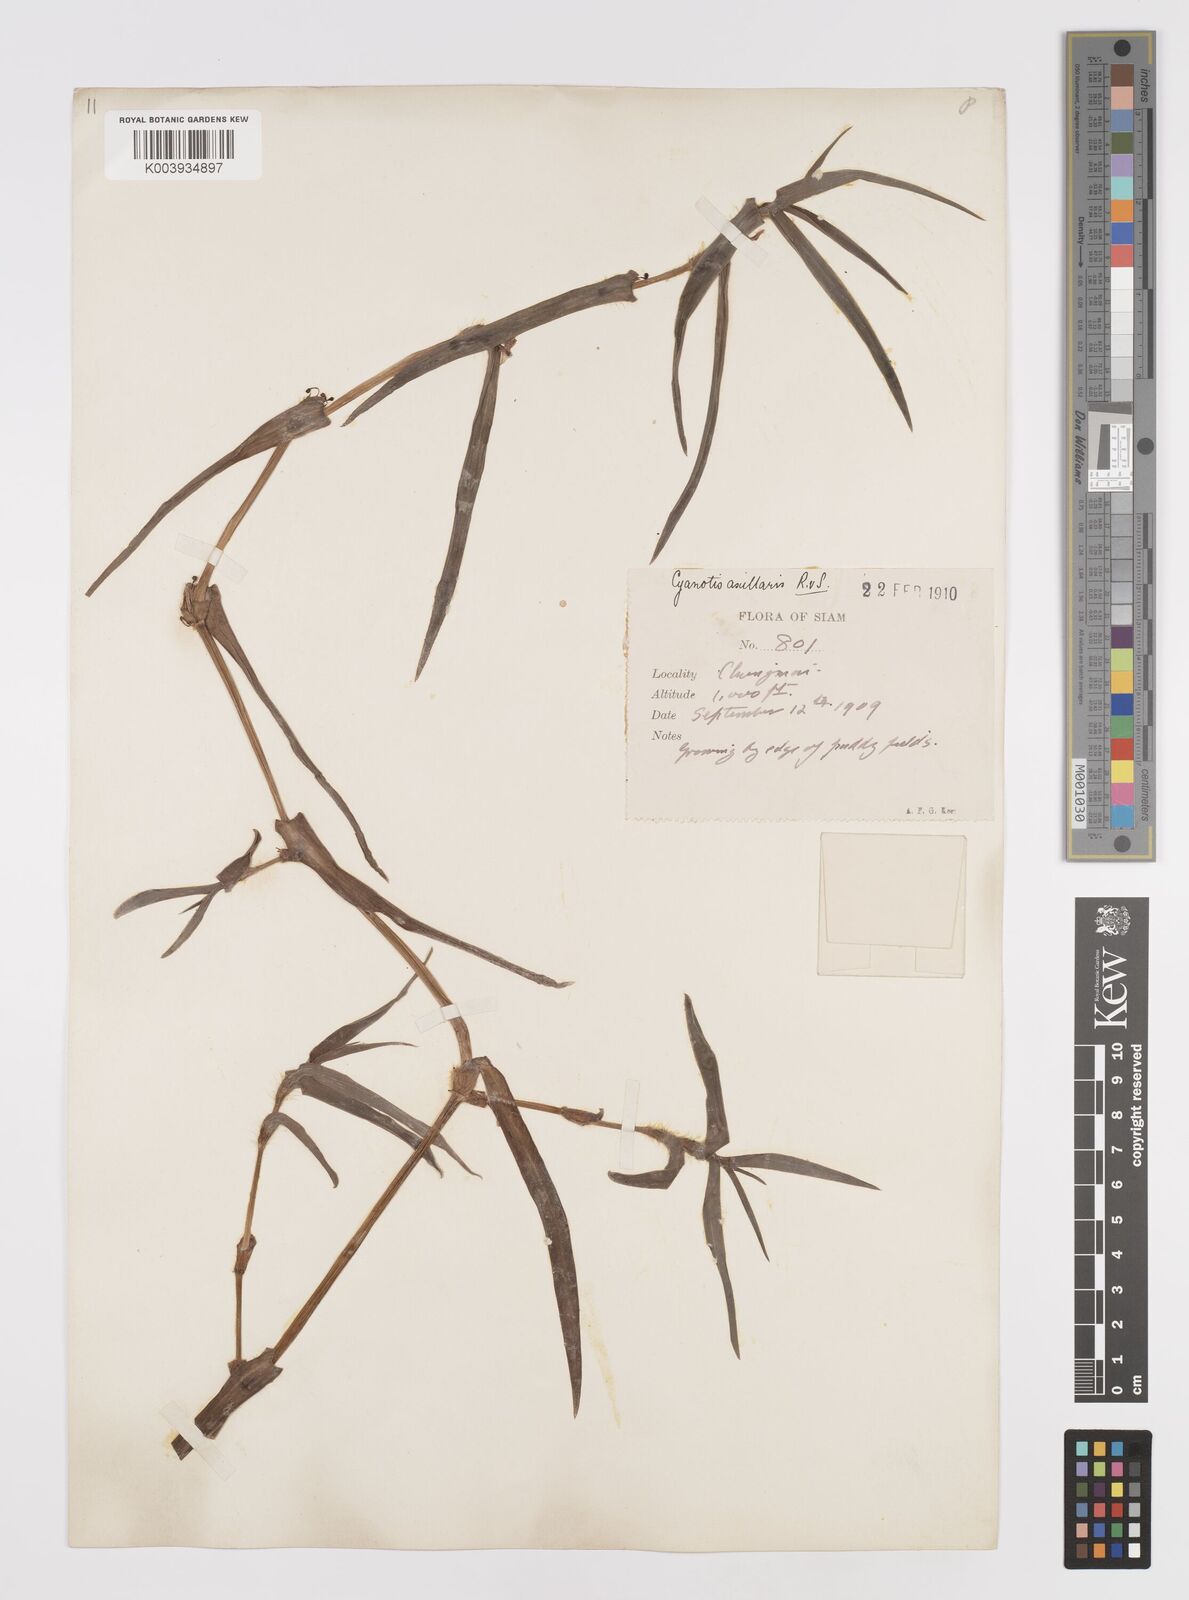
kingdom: Plantae
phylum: Tracheophyta
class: Liliopsida
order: Commelinales
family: Commelinaceae
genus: Cyanotis
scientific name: Cyanotis axillaris
